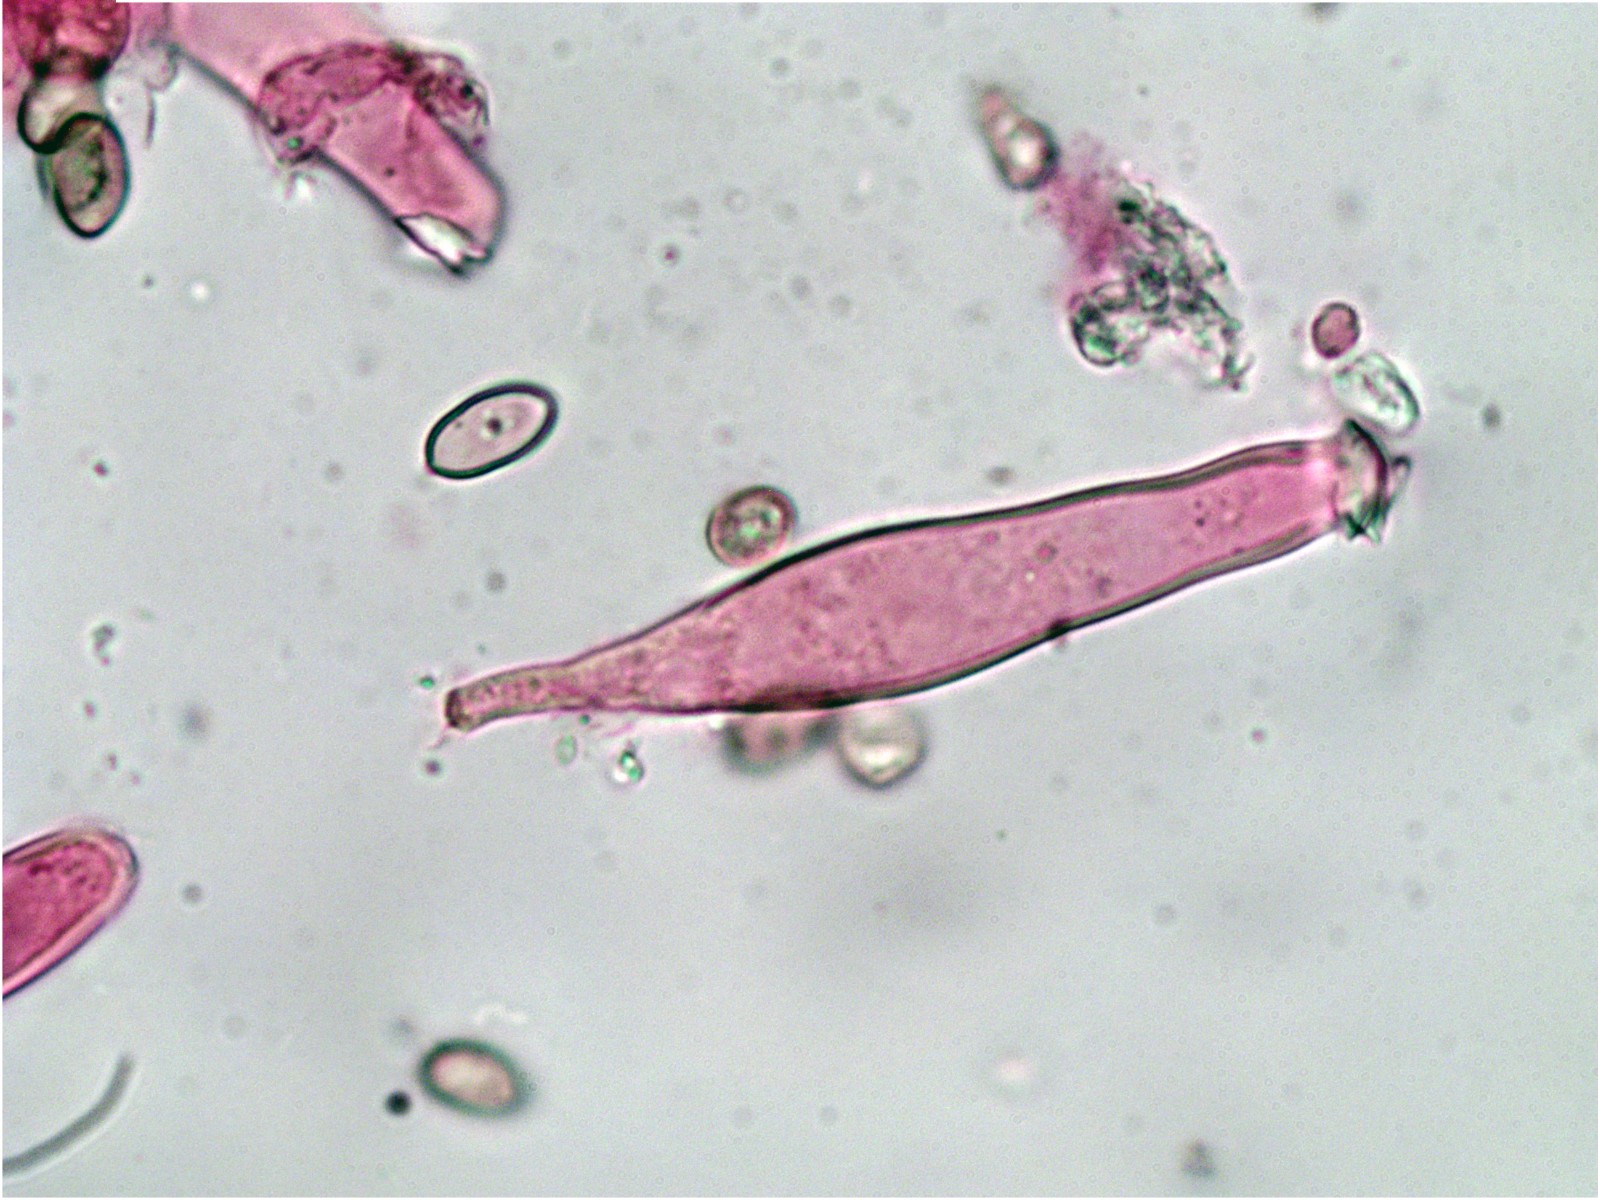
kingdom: Fungi
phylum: Basidiomycota
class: Agaricomycetes
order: Agaricales
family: Inocybaceae
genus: Inocybe
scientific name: Inocybe
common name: trævlhat
